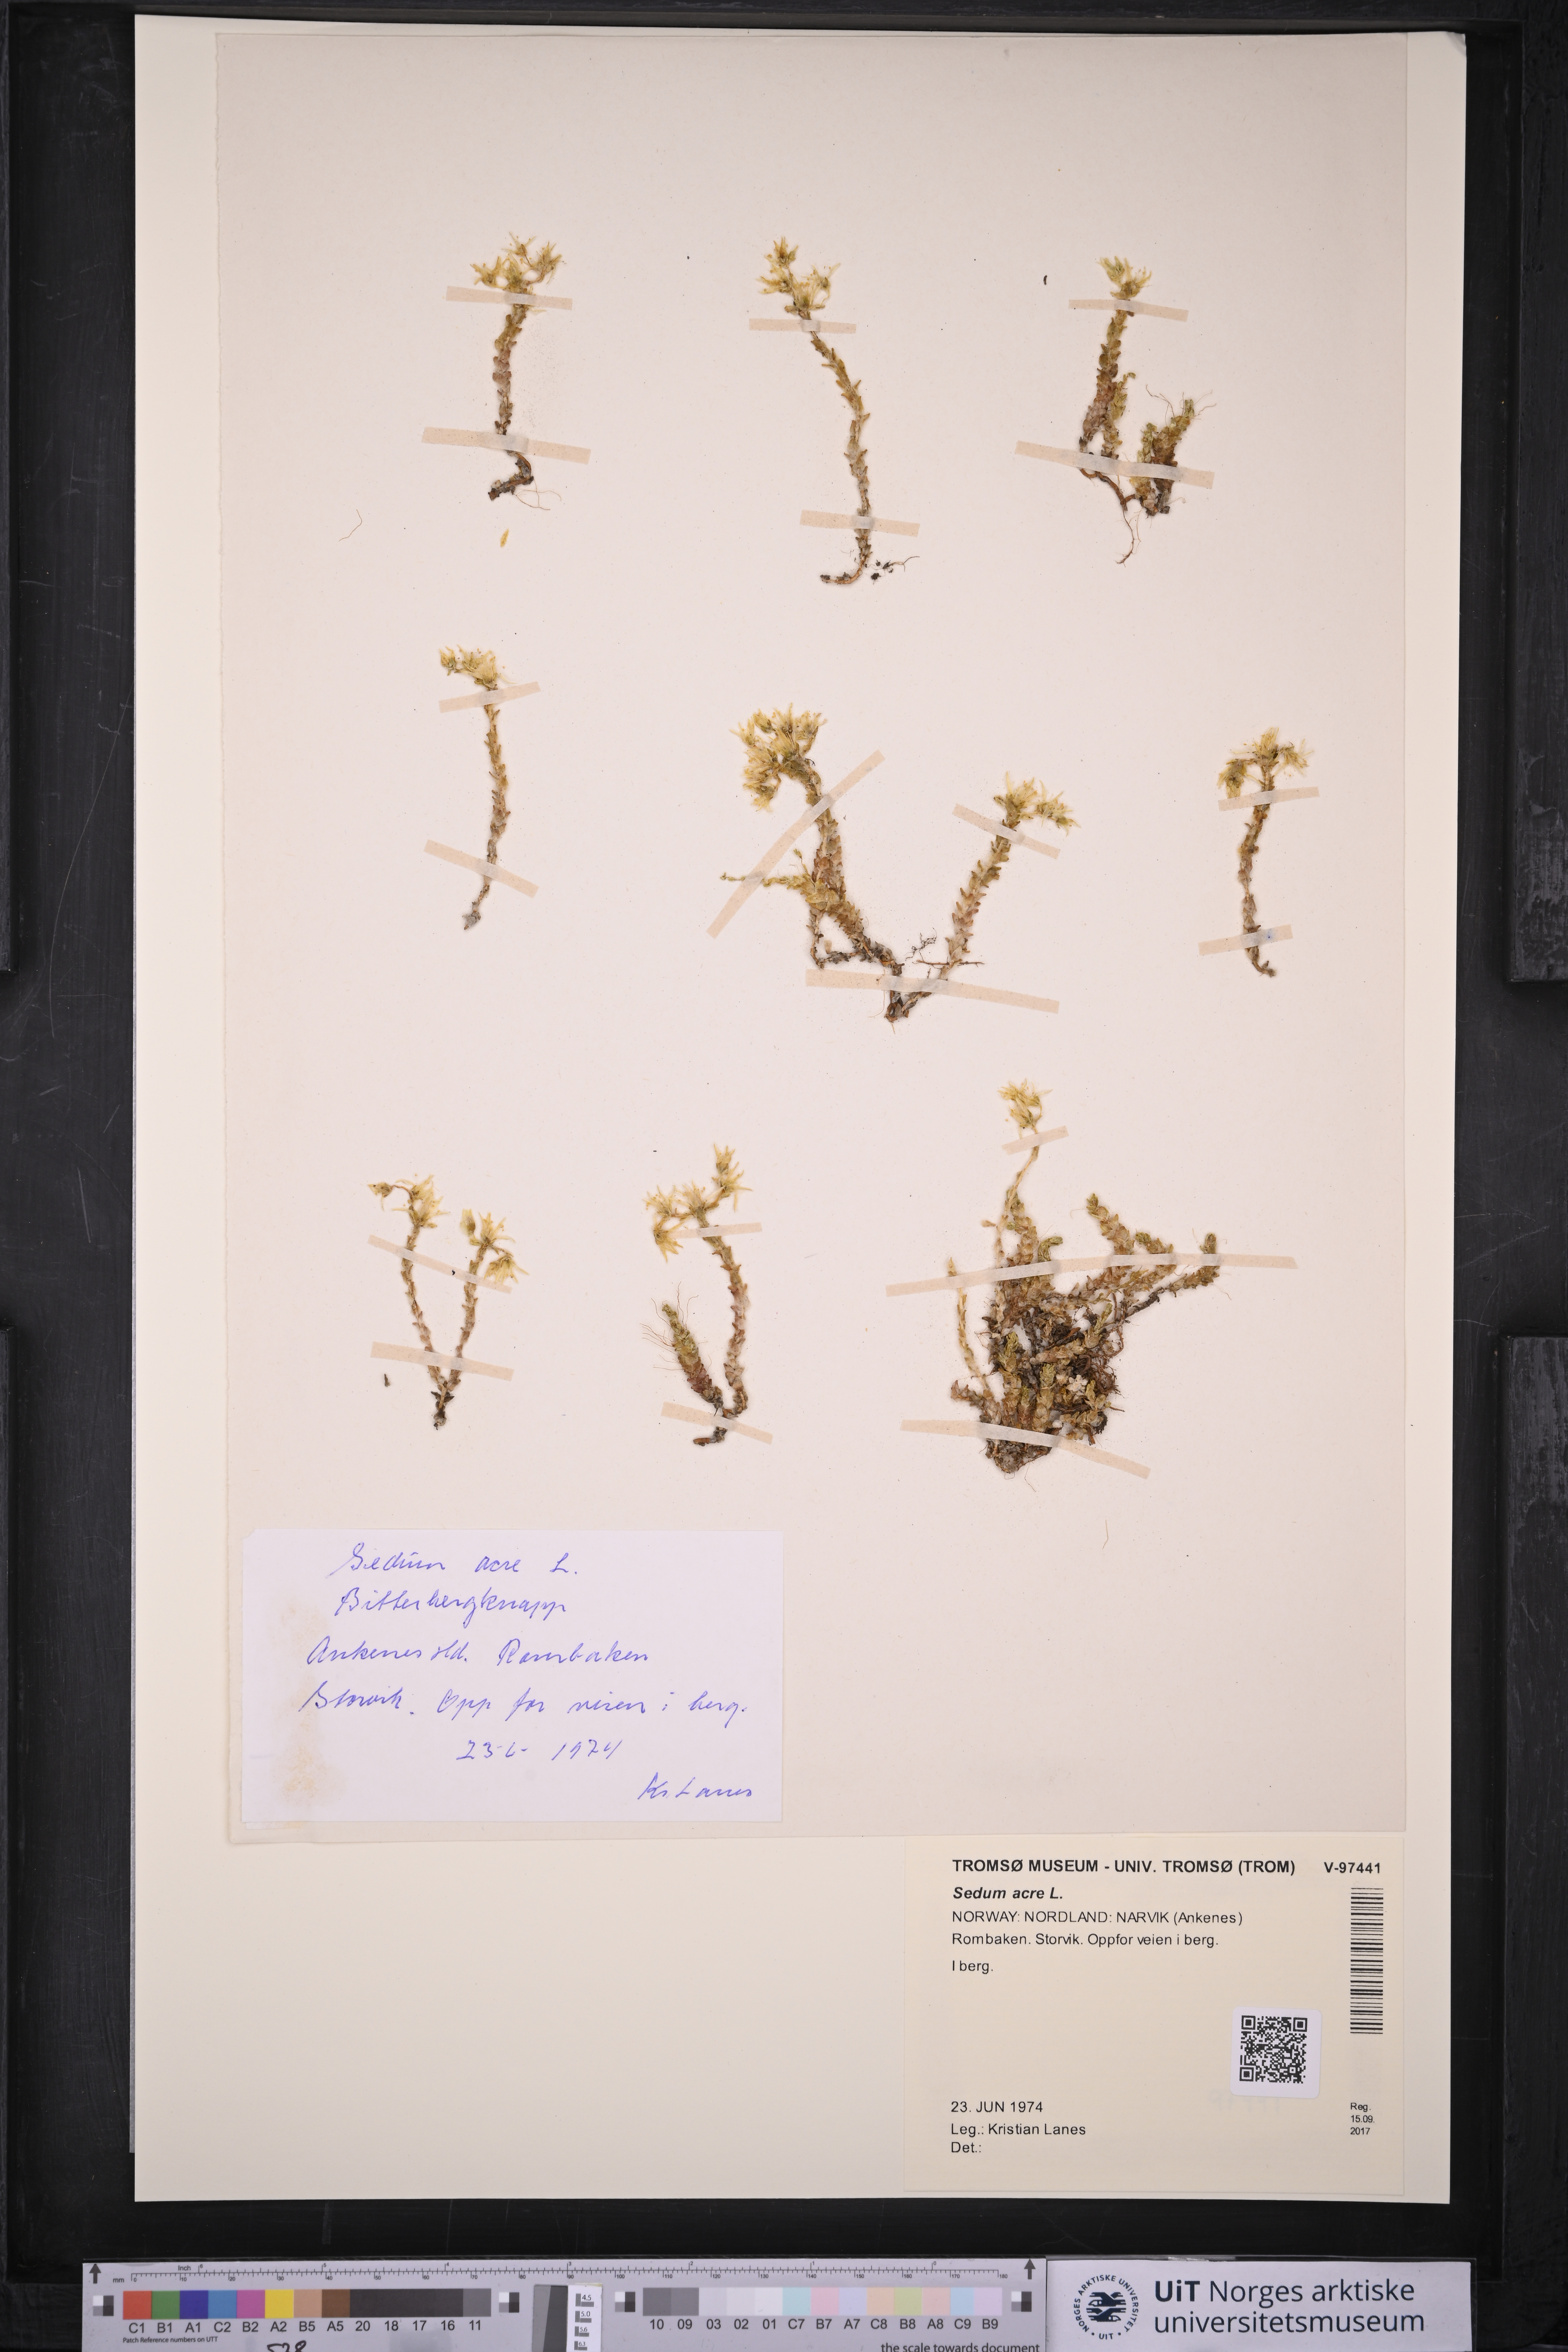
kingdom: Plantae
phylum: Tracheophyta
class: Magnoliopsida
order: Saxifragales
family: Crassulaceae
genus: Sedum
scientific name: Sedum acre
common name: Biting stonecrop
